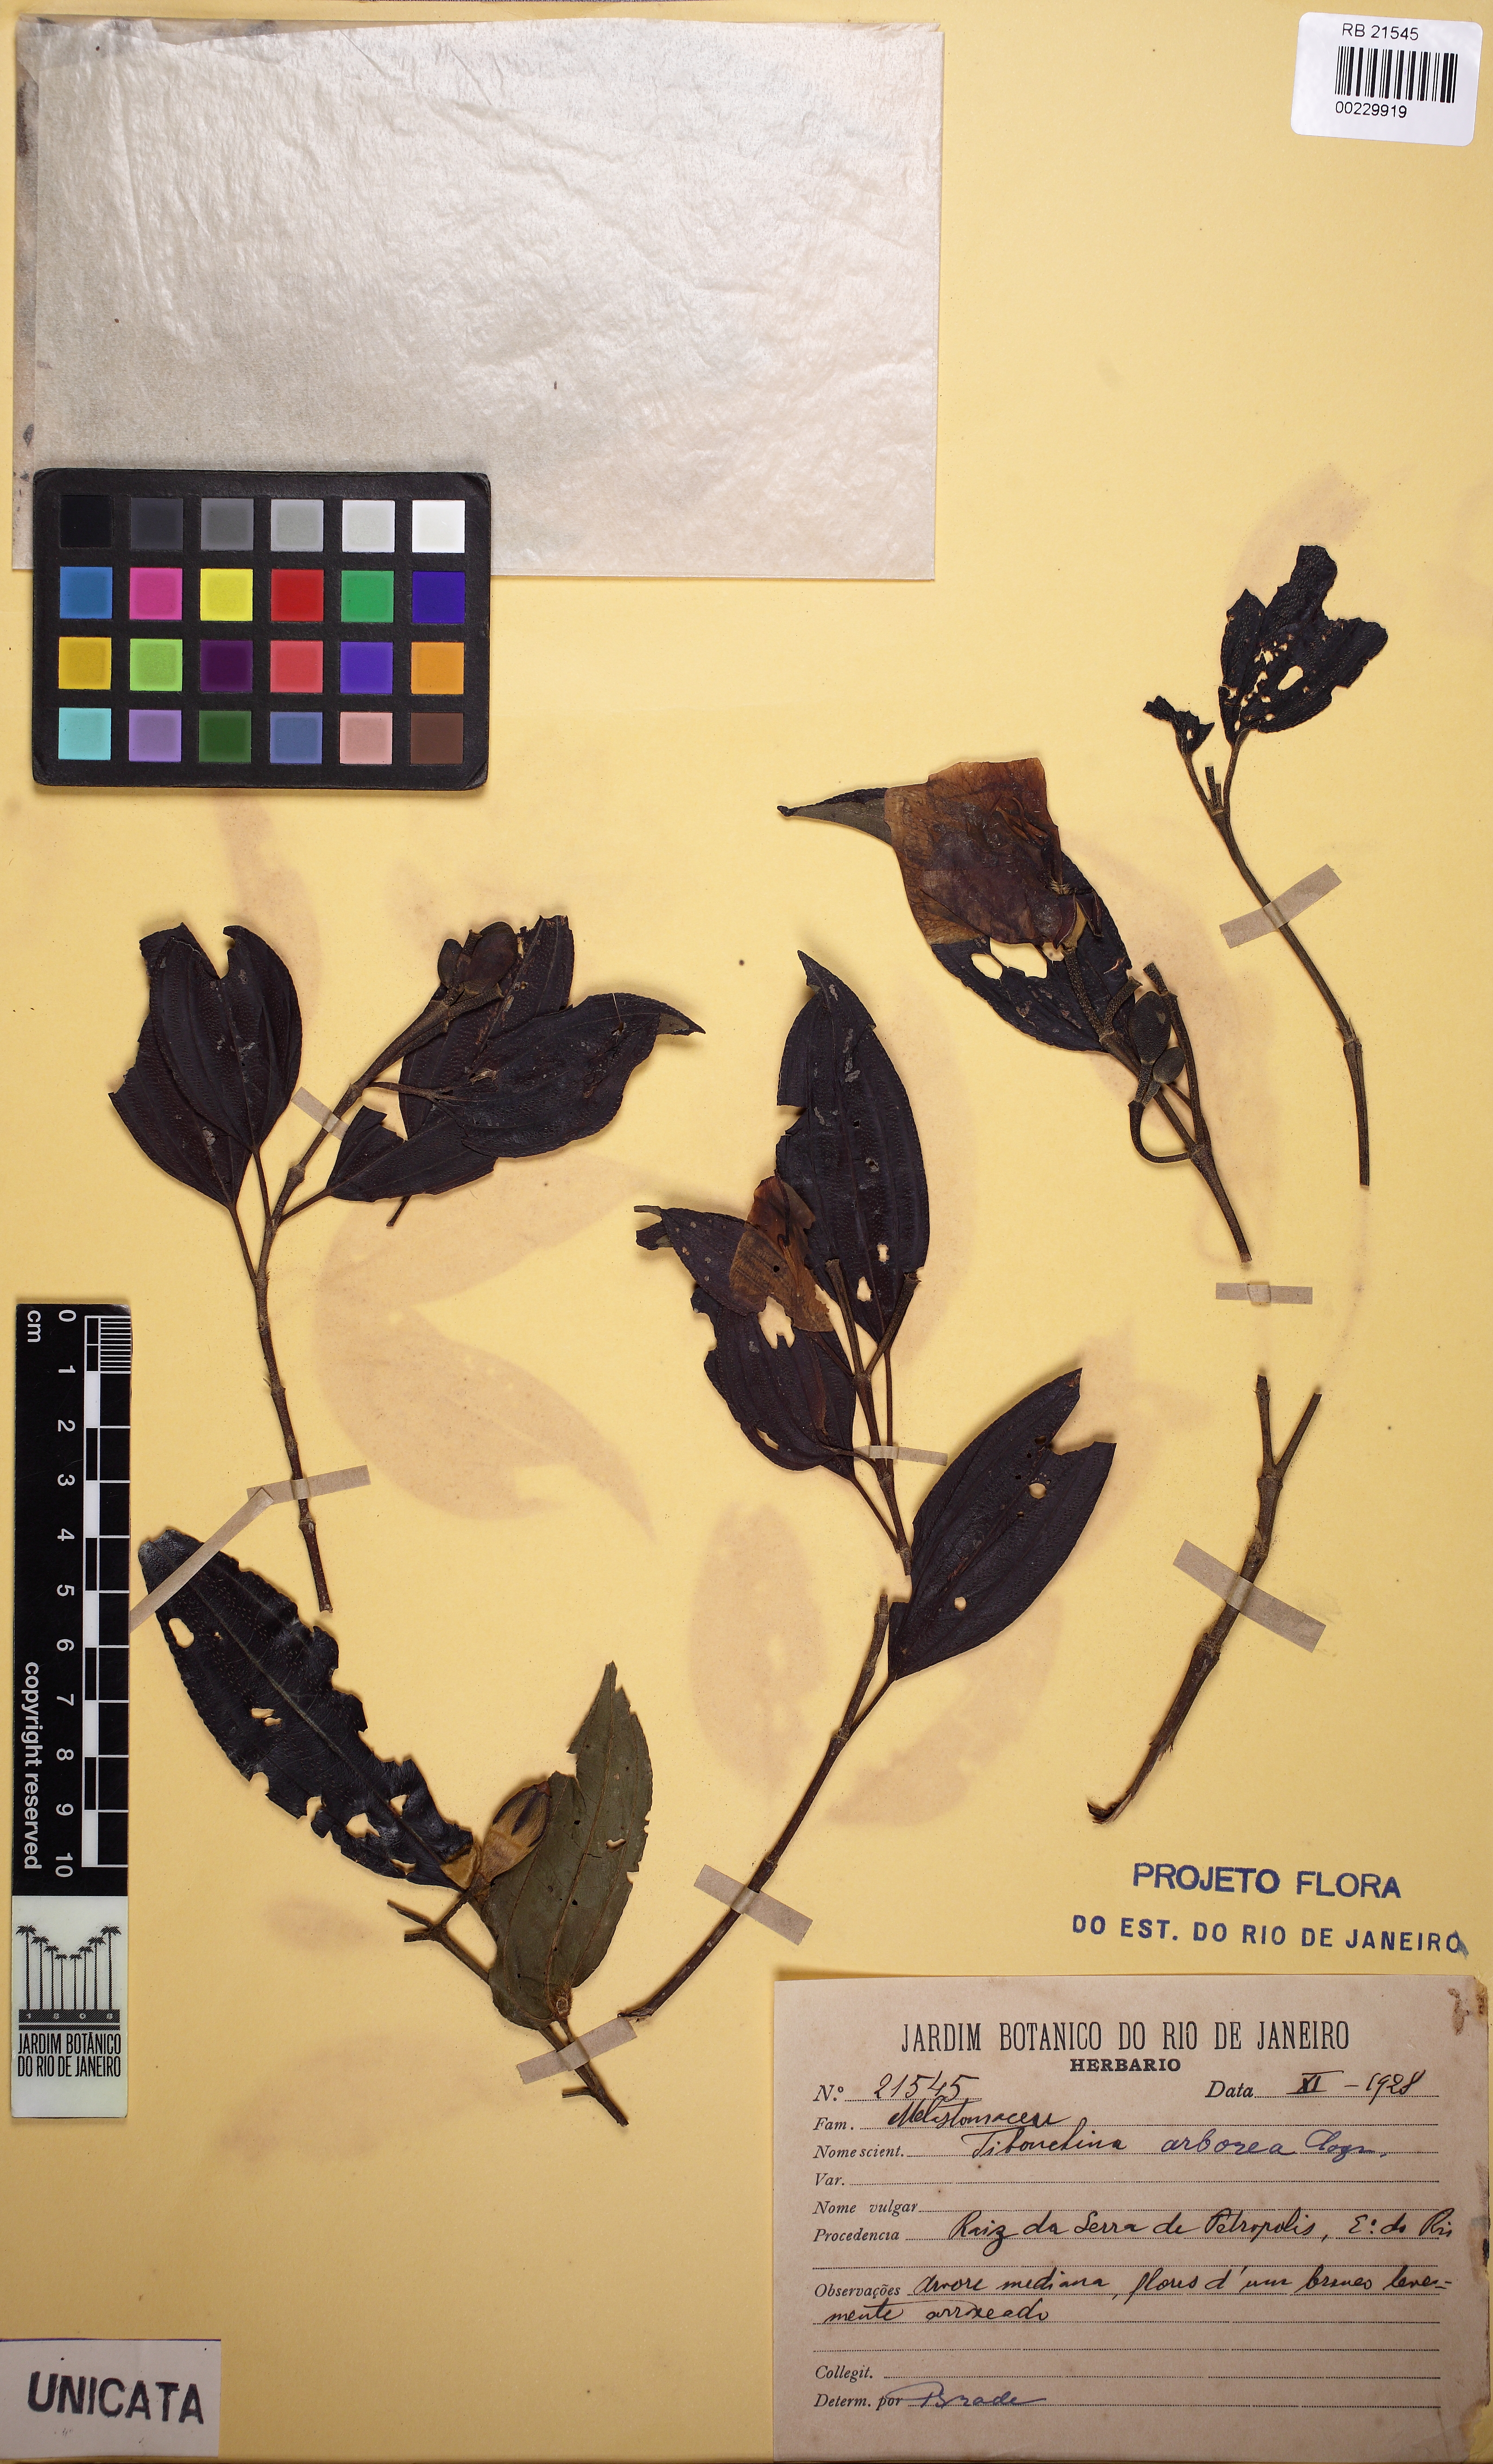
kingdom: Plantae
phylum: Tracheophyta
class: Magnoliopsida
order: Myrtales
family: Melastomataceae
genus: Pleroma
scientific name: Pleroma arboreum
